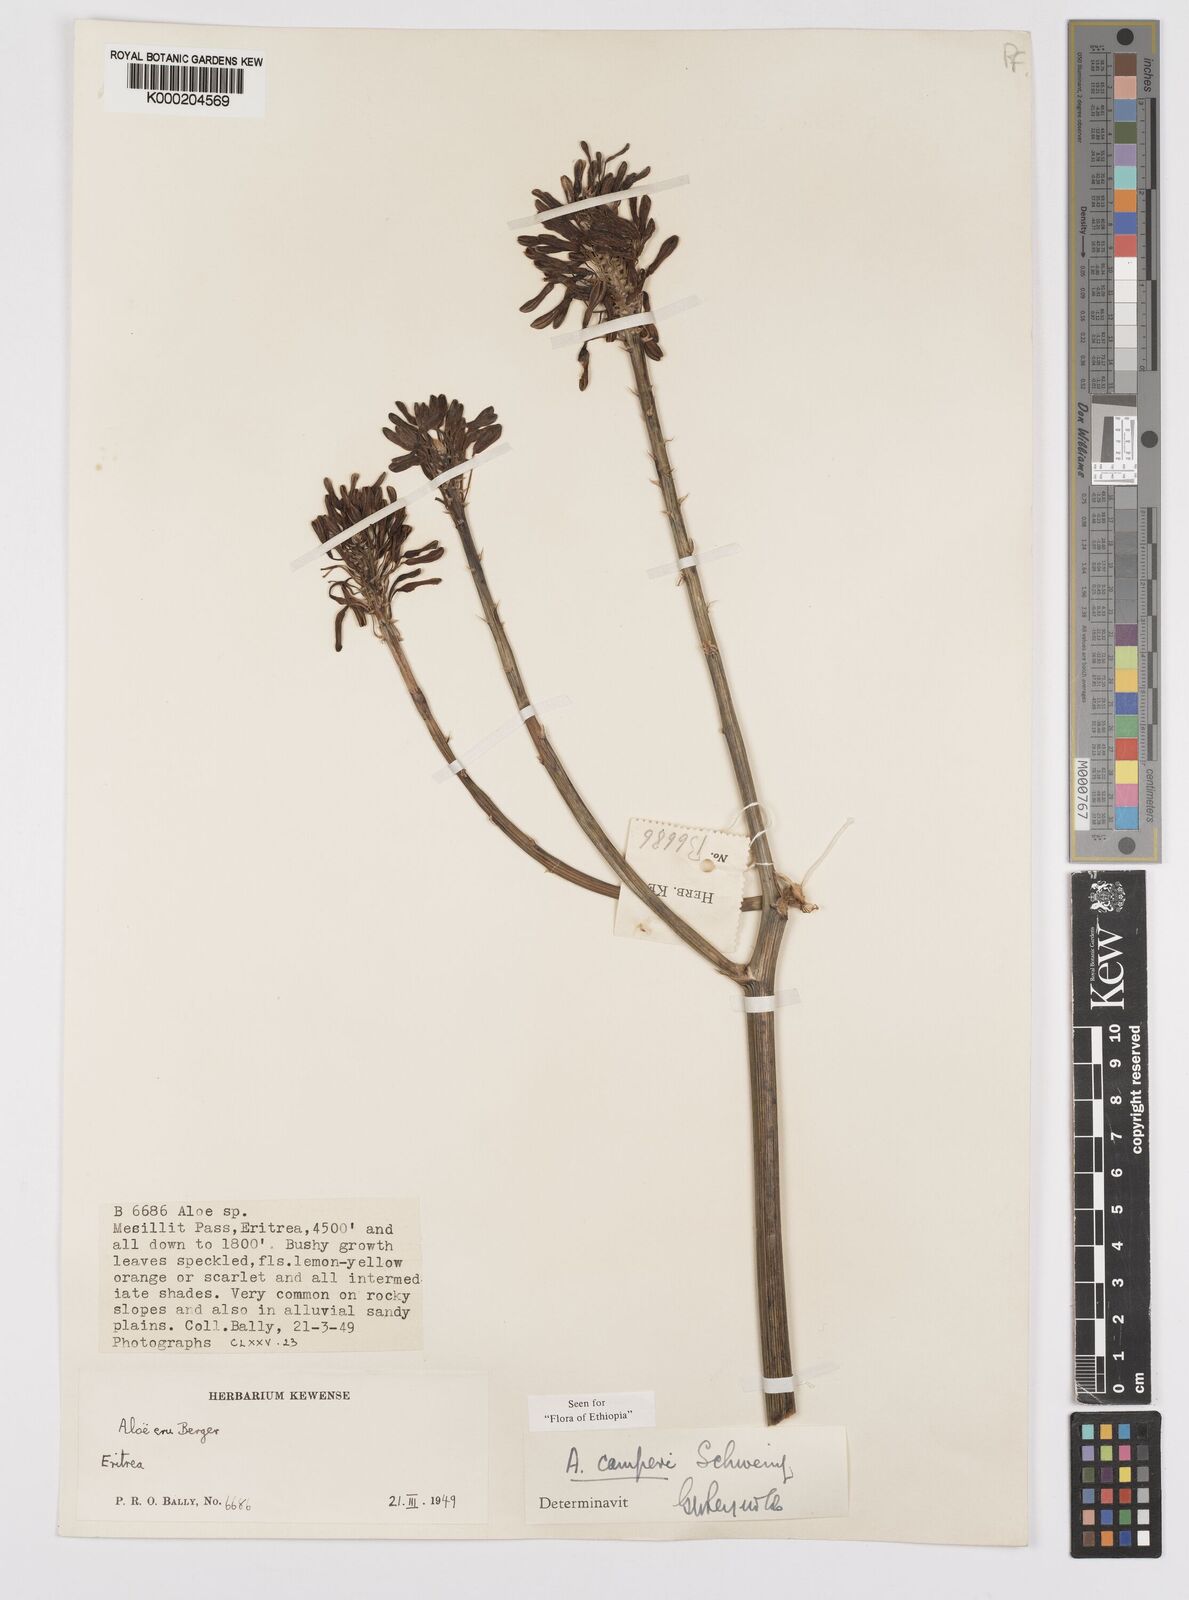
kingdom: Plantae
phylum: Tracheophyta
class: Liliopsida
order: Asparagales
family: Asphodelaceae
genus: Aloe
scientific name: Aloe camperi
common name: Camper's aloe
